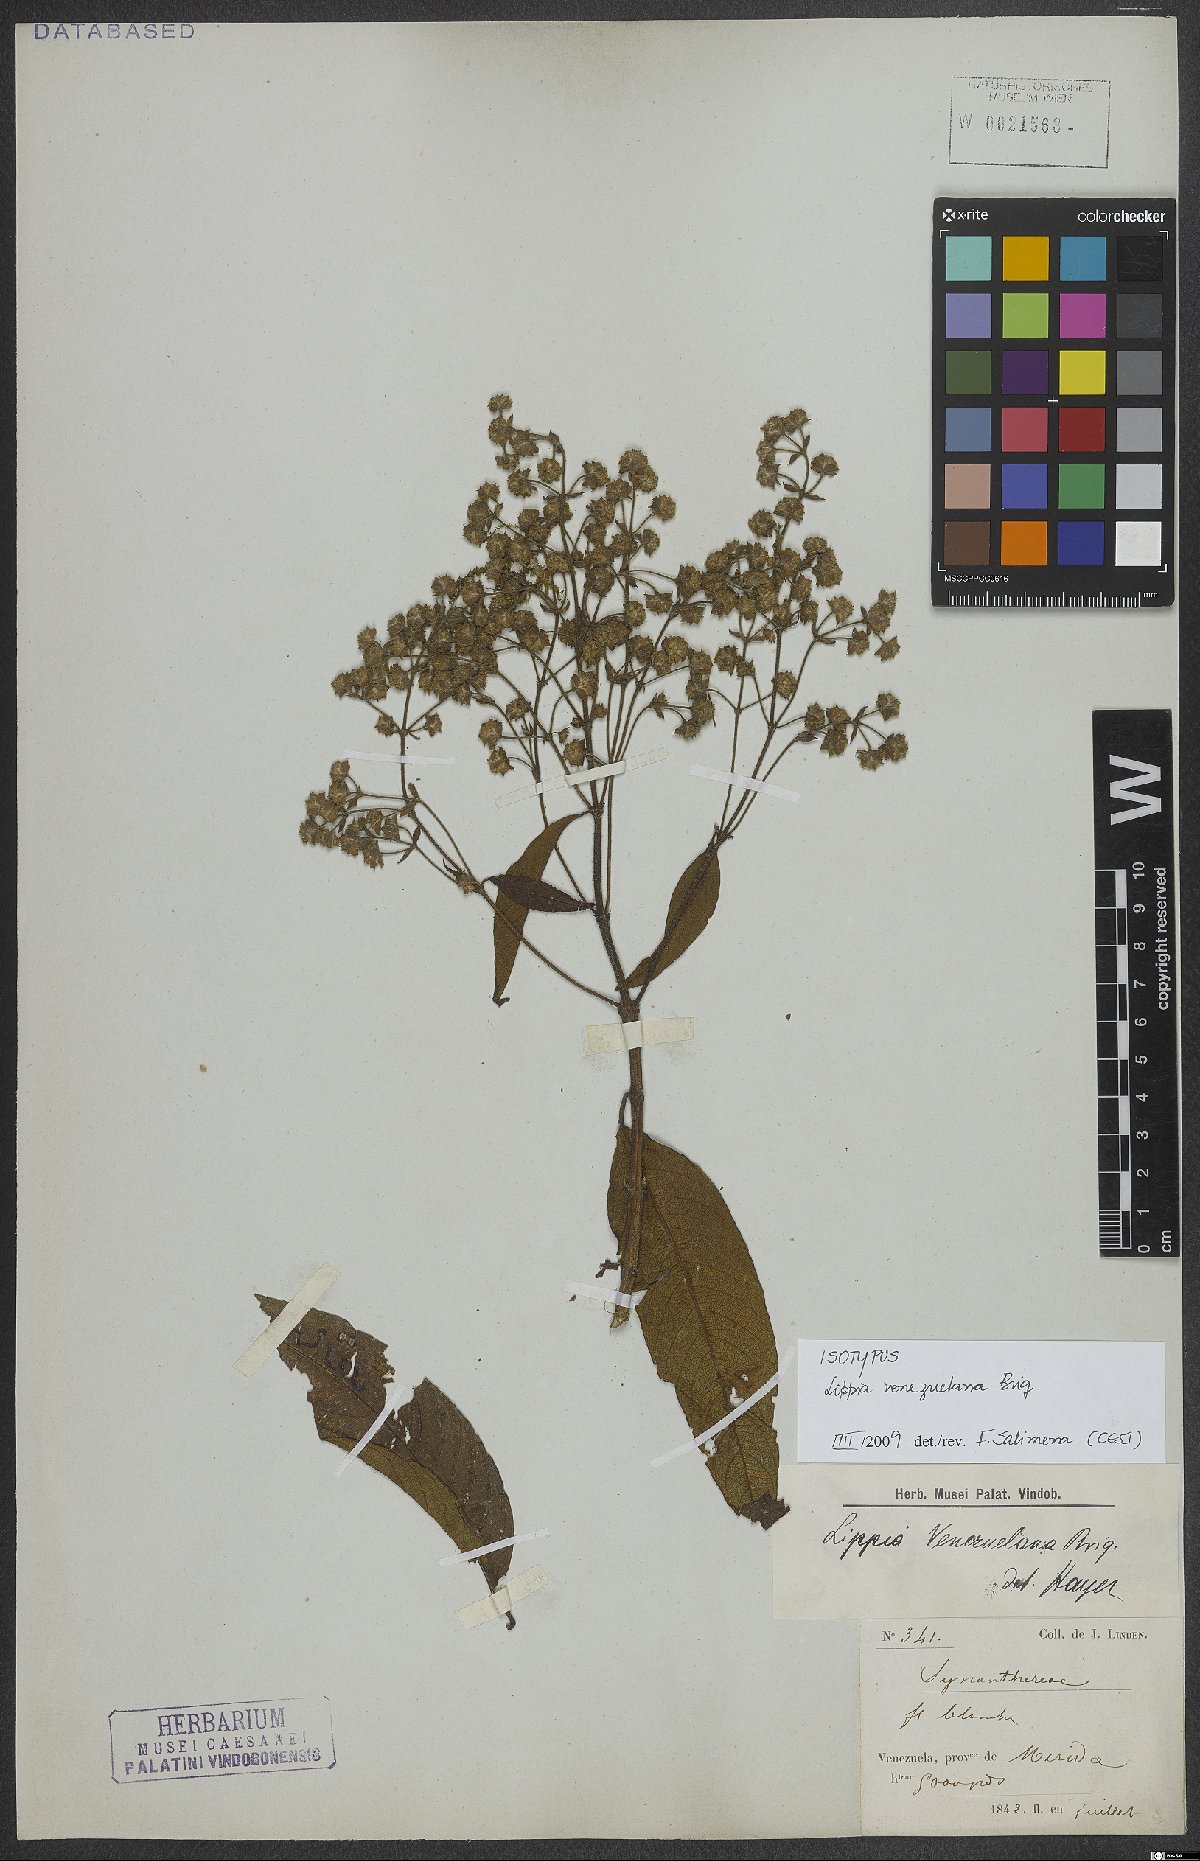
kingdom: Plantae
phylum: Tracheophyta
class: Magnoliopsida
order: Lamiales
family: Verbenaceae
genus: Lippia
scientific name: Lippia schlimii
